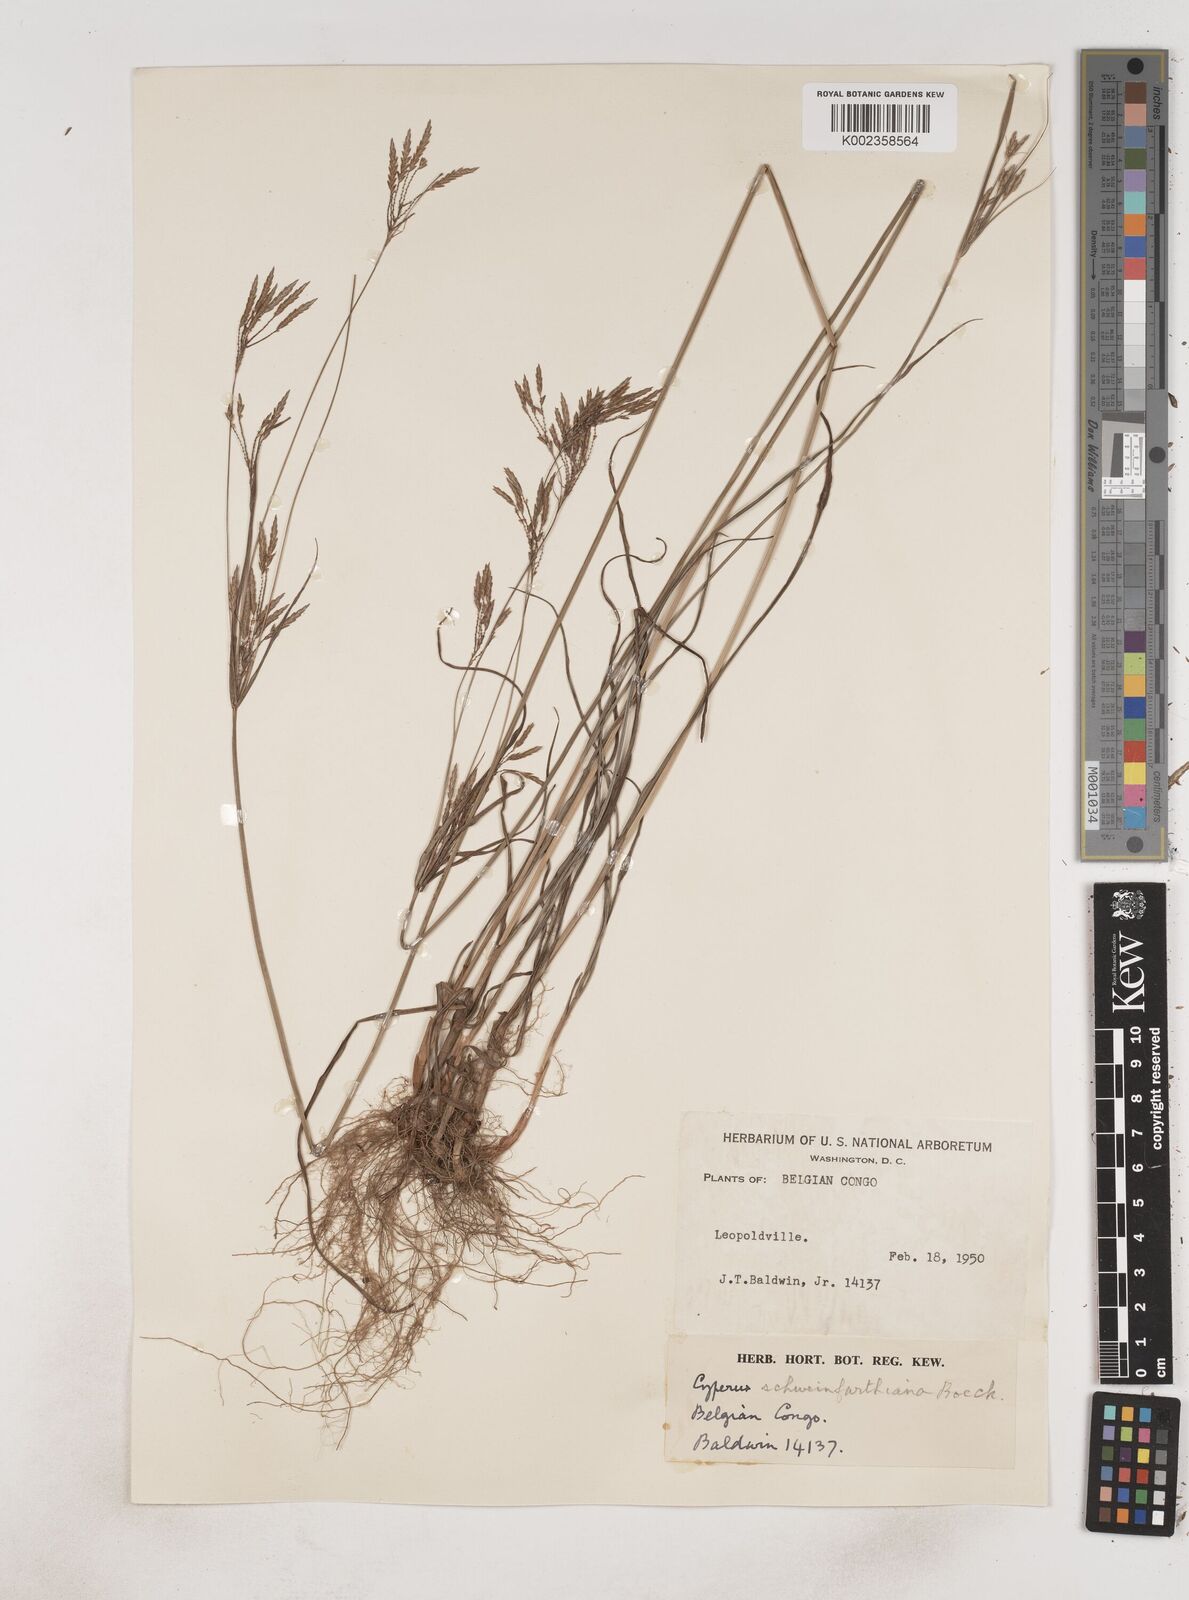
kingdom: Plantae
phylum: Tracheophyta
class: Liliopsida
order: Poales
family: Cyperaceae
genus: Cyperus
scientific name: Cyperus tenuiculmis
